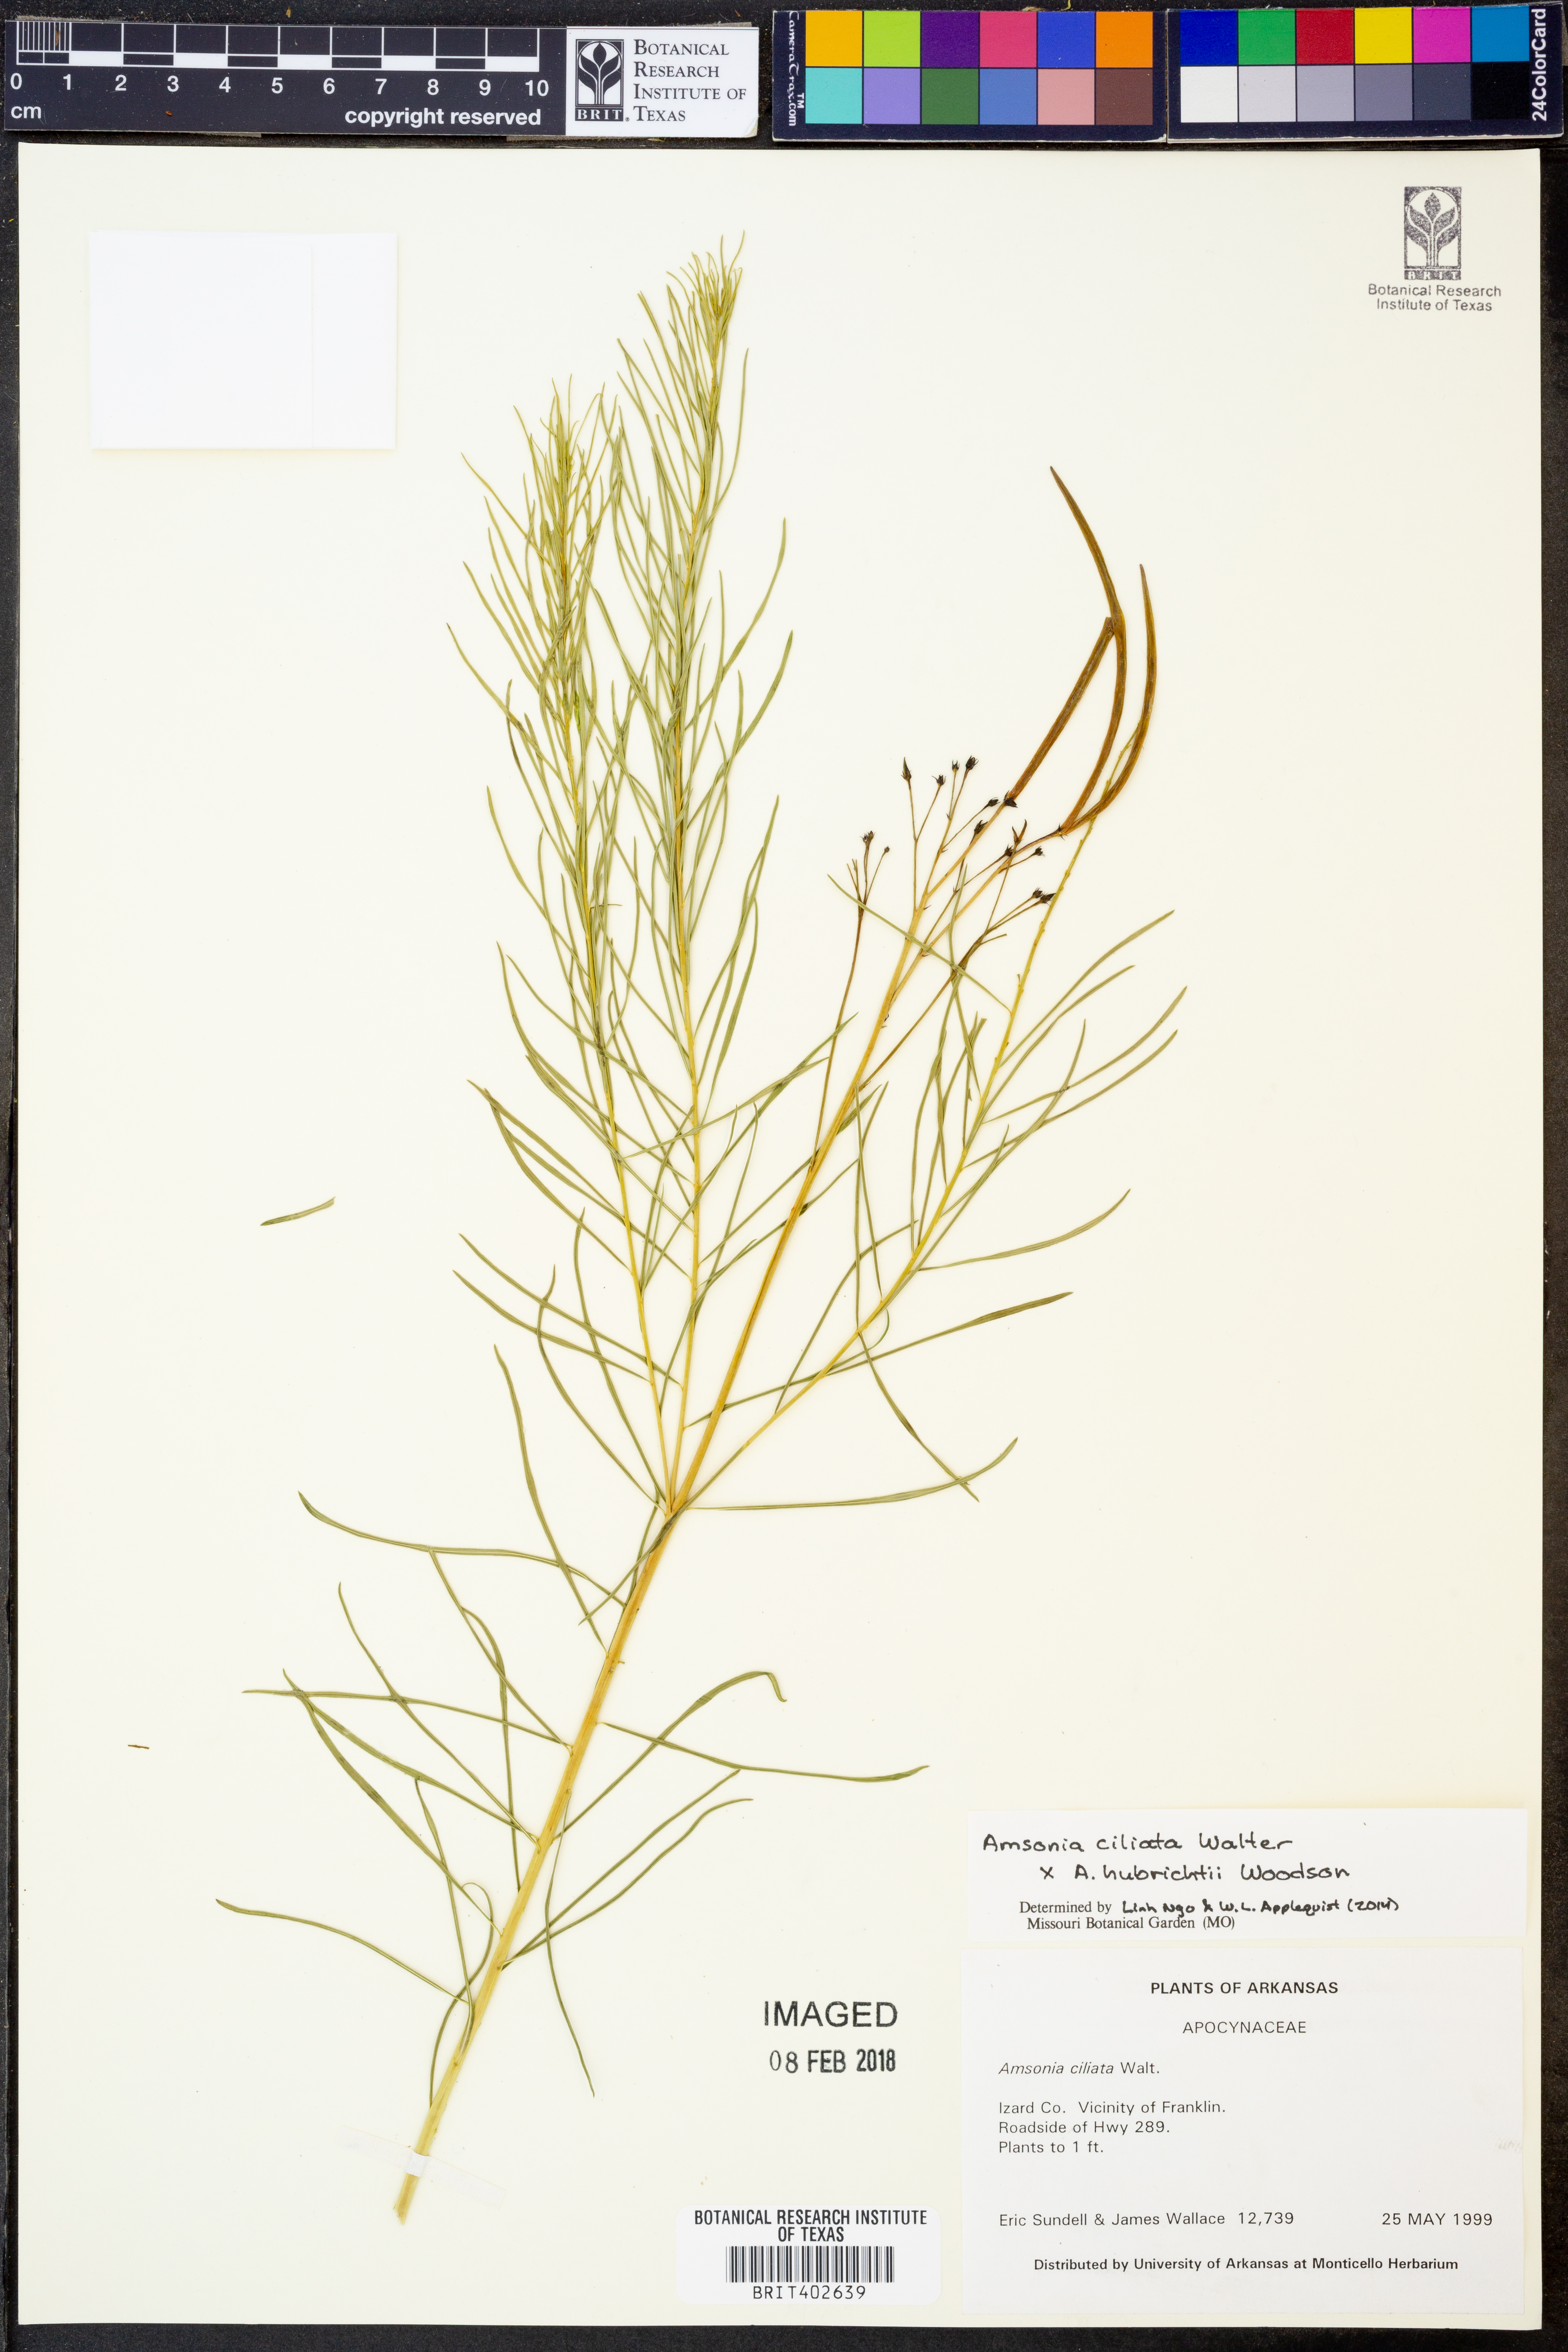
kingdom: Plantae
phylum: Tracheophyta
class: Magnoliopsida
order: Gentianales
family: Apocynaceae
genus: Amsonia
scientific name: Amsonia ciliata
